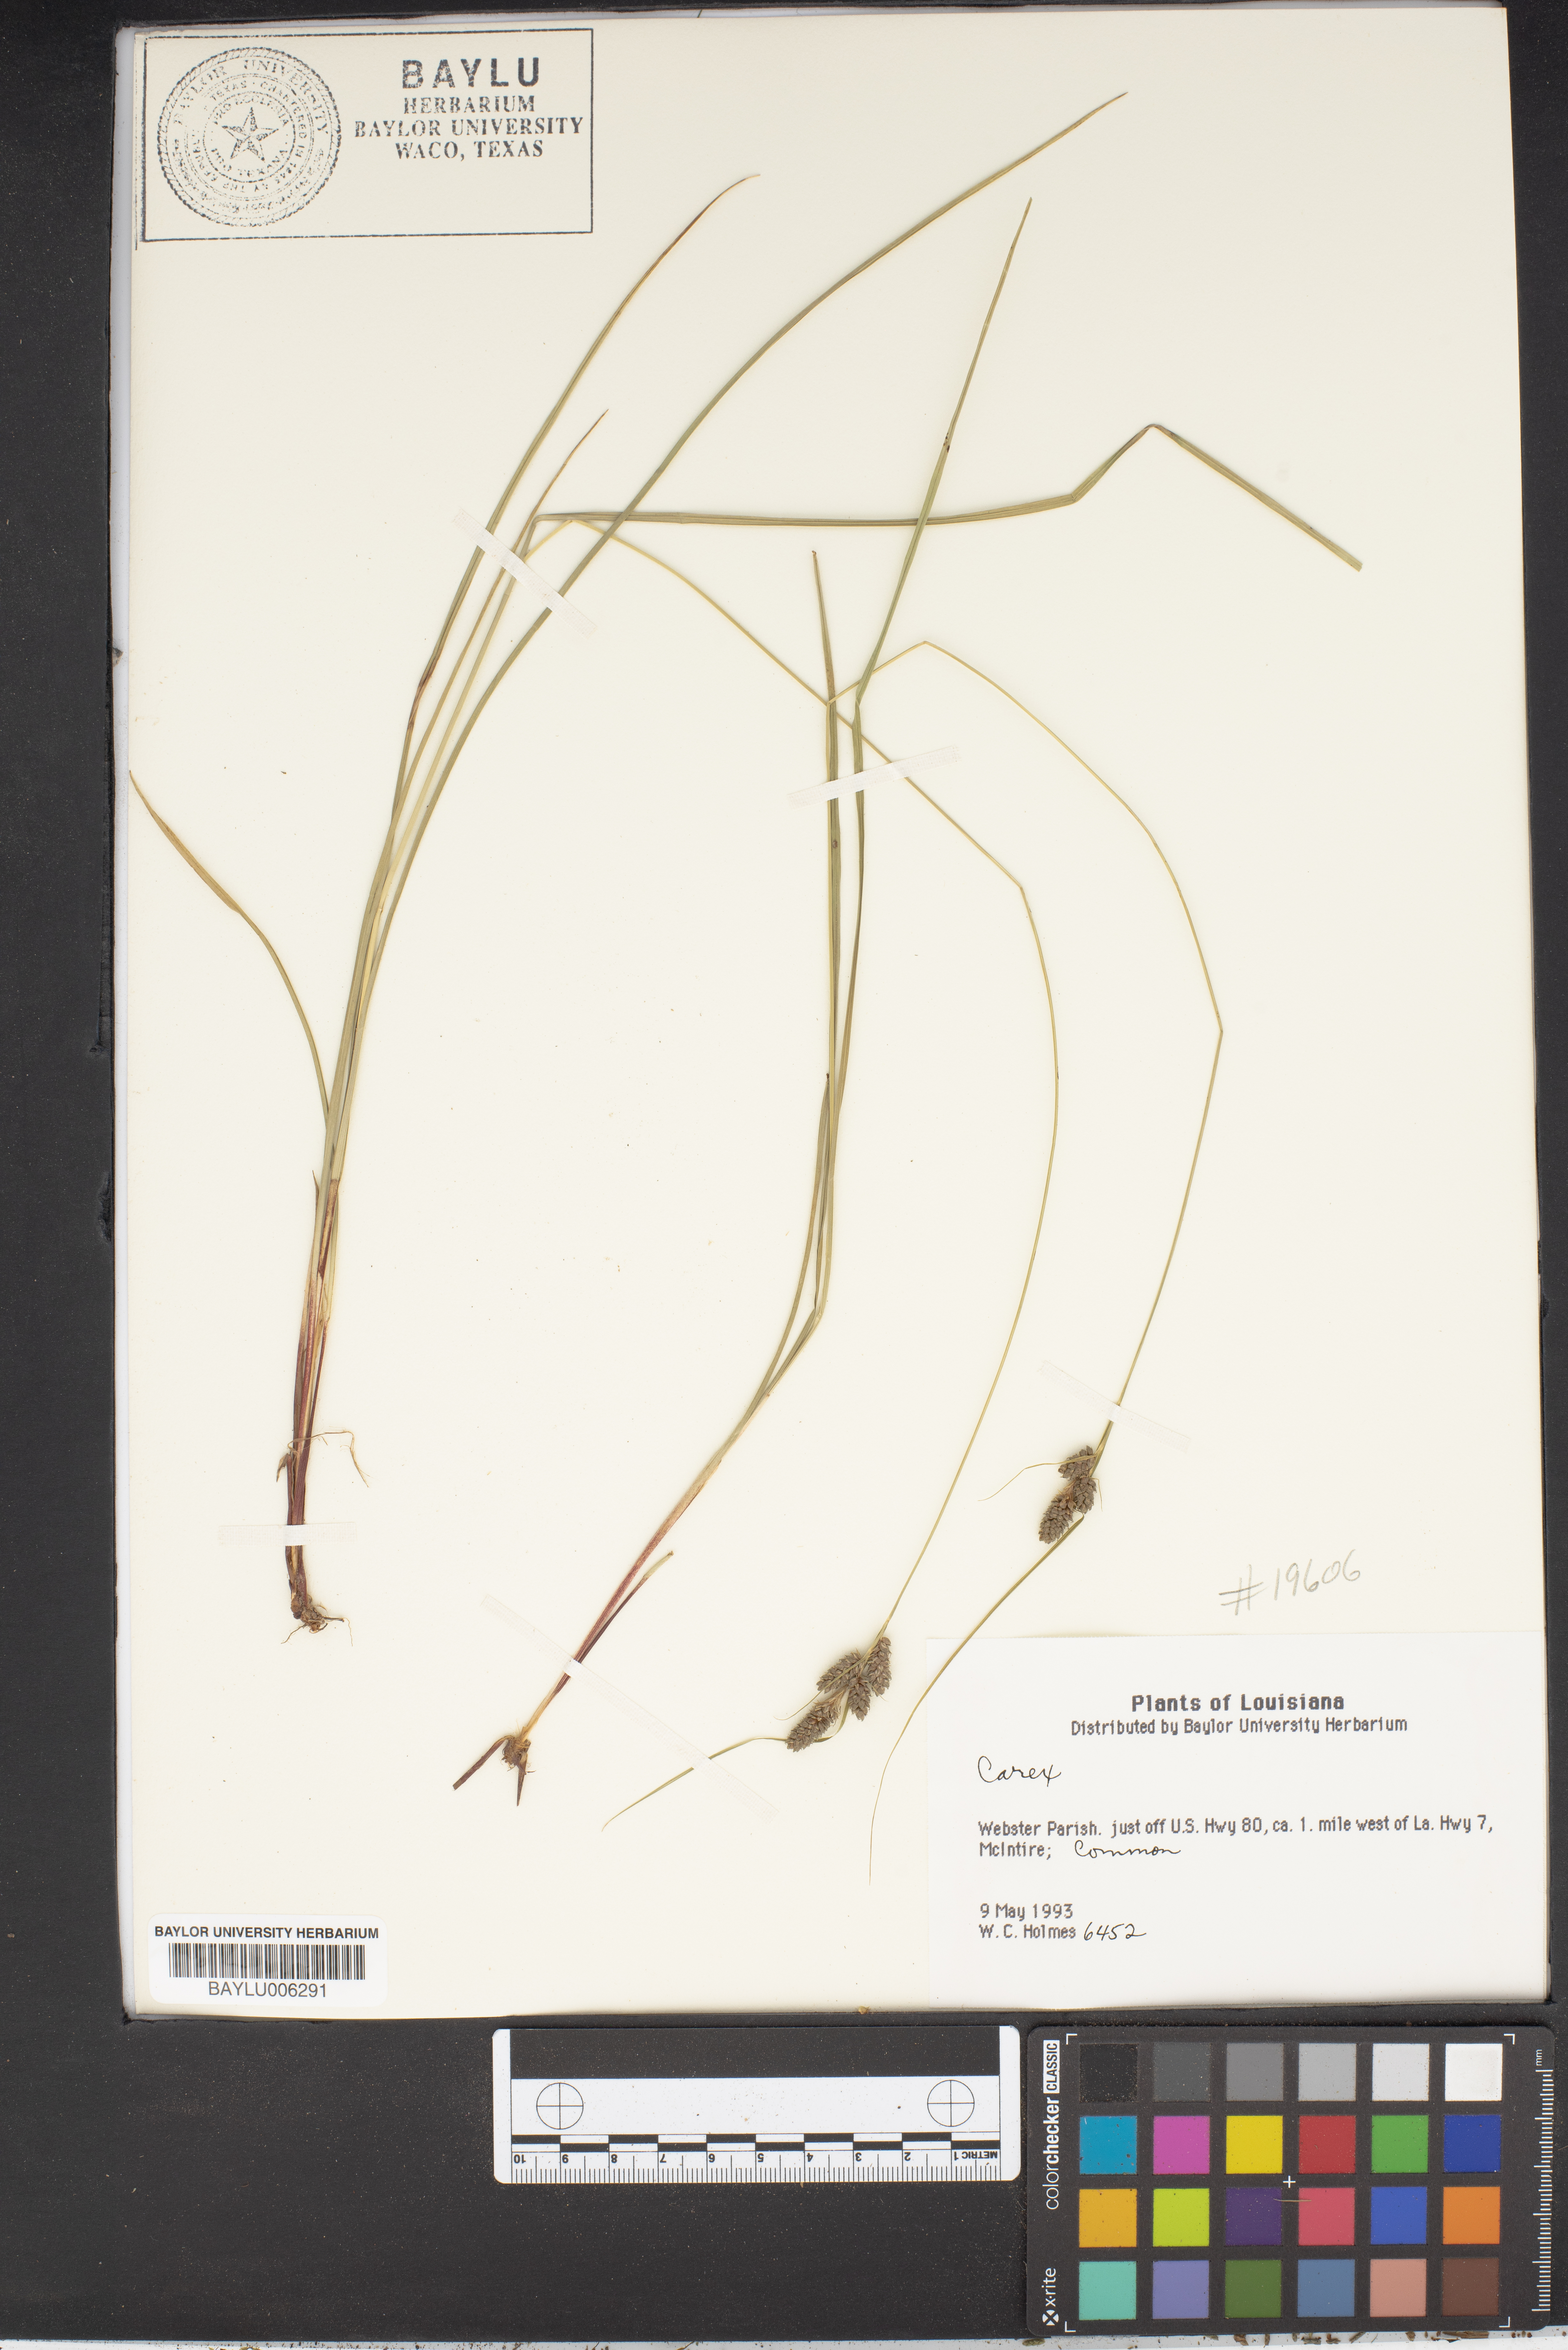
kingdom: Plantae
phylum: Tracheophyta
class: Liliopsida
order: Poales
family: Cyperaceae
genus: Carex
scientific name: Carex
